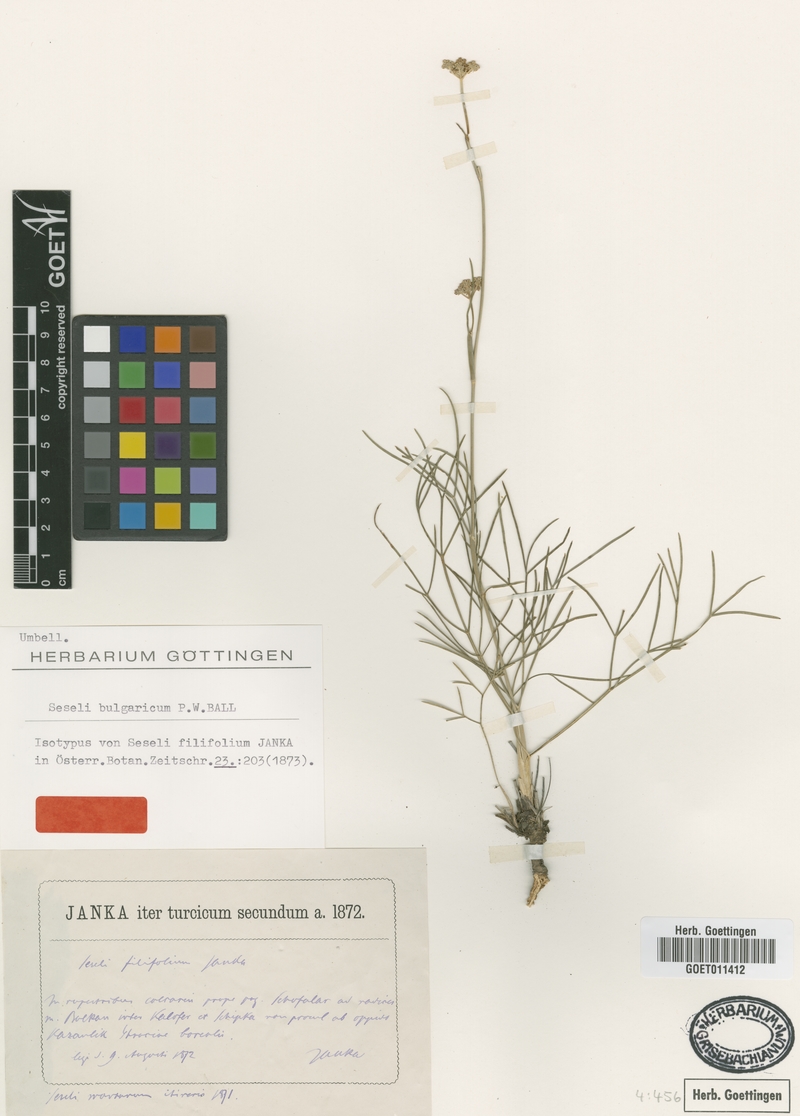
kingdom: Plantae
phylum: Tracheophyta
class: Magnoliopsida
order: Apiales
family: Apiaceae
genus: Seseli
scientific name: Seseli bulgaricum
